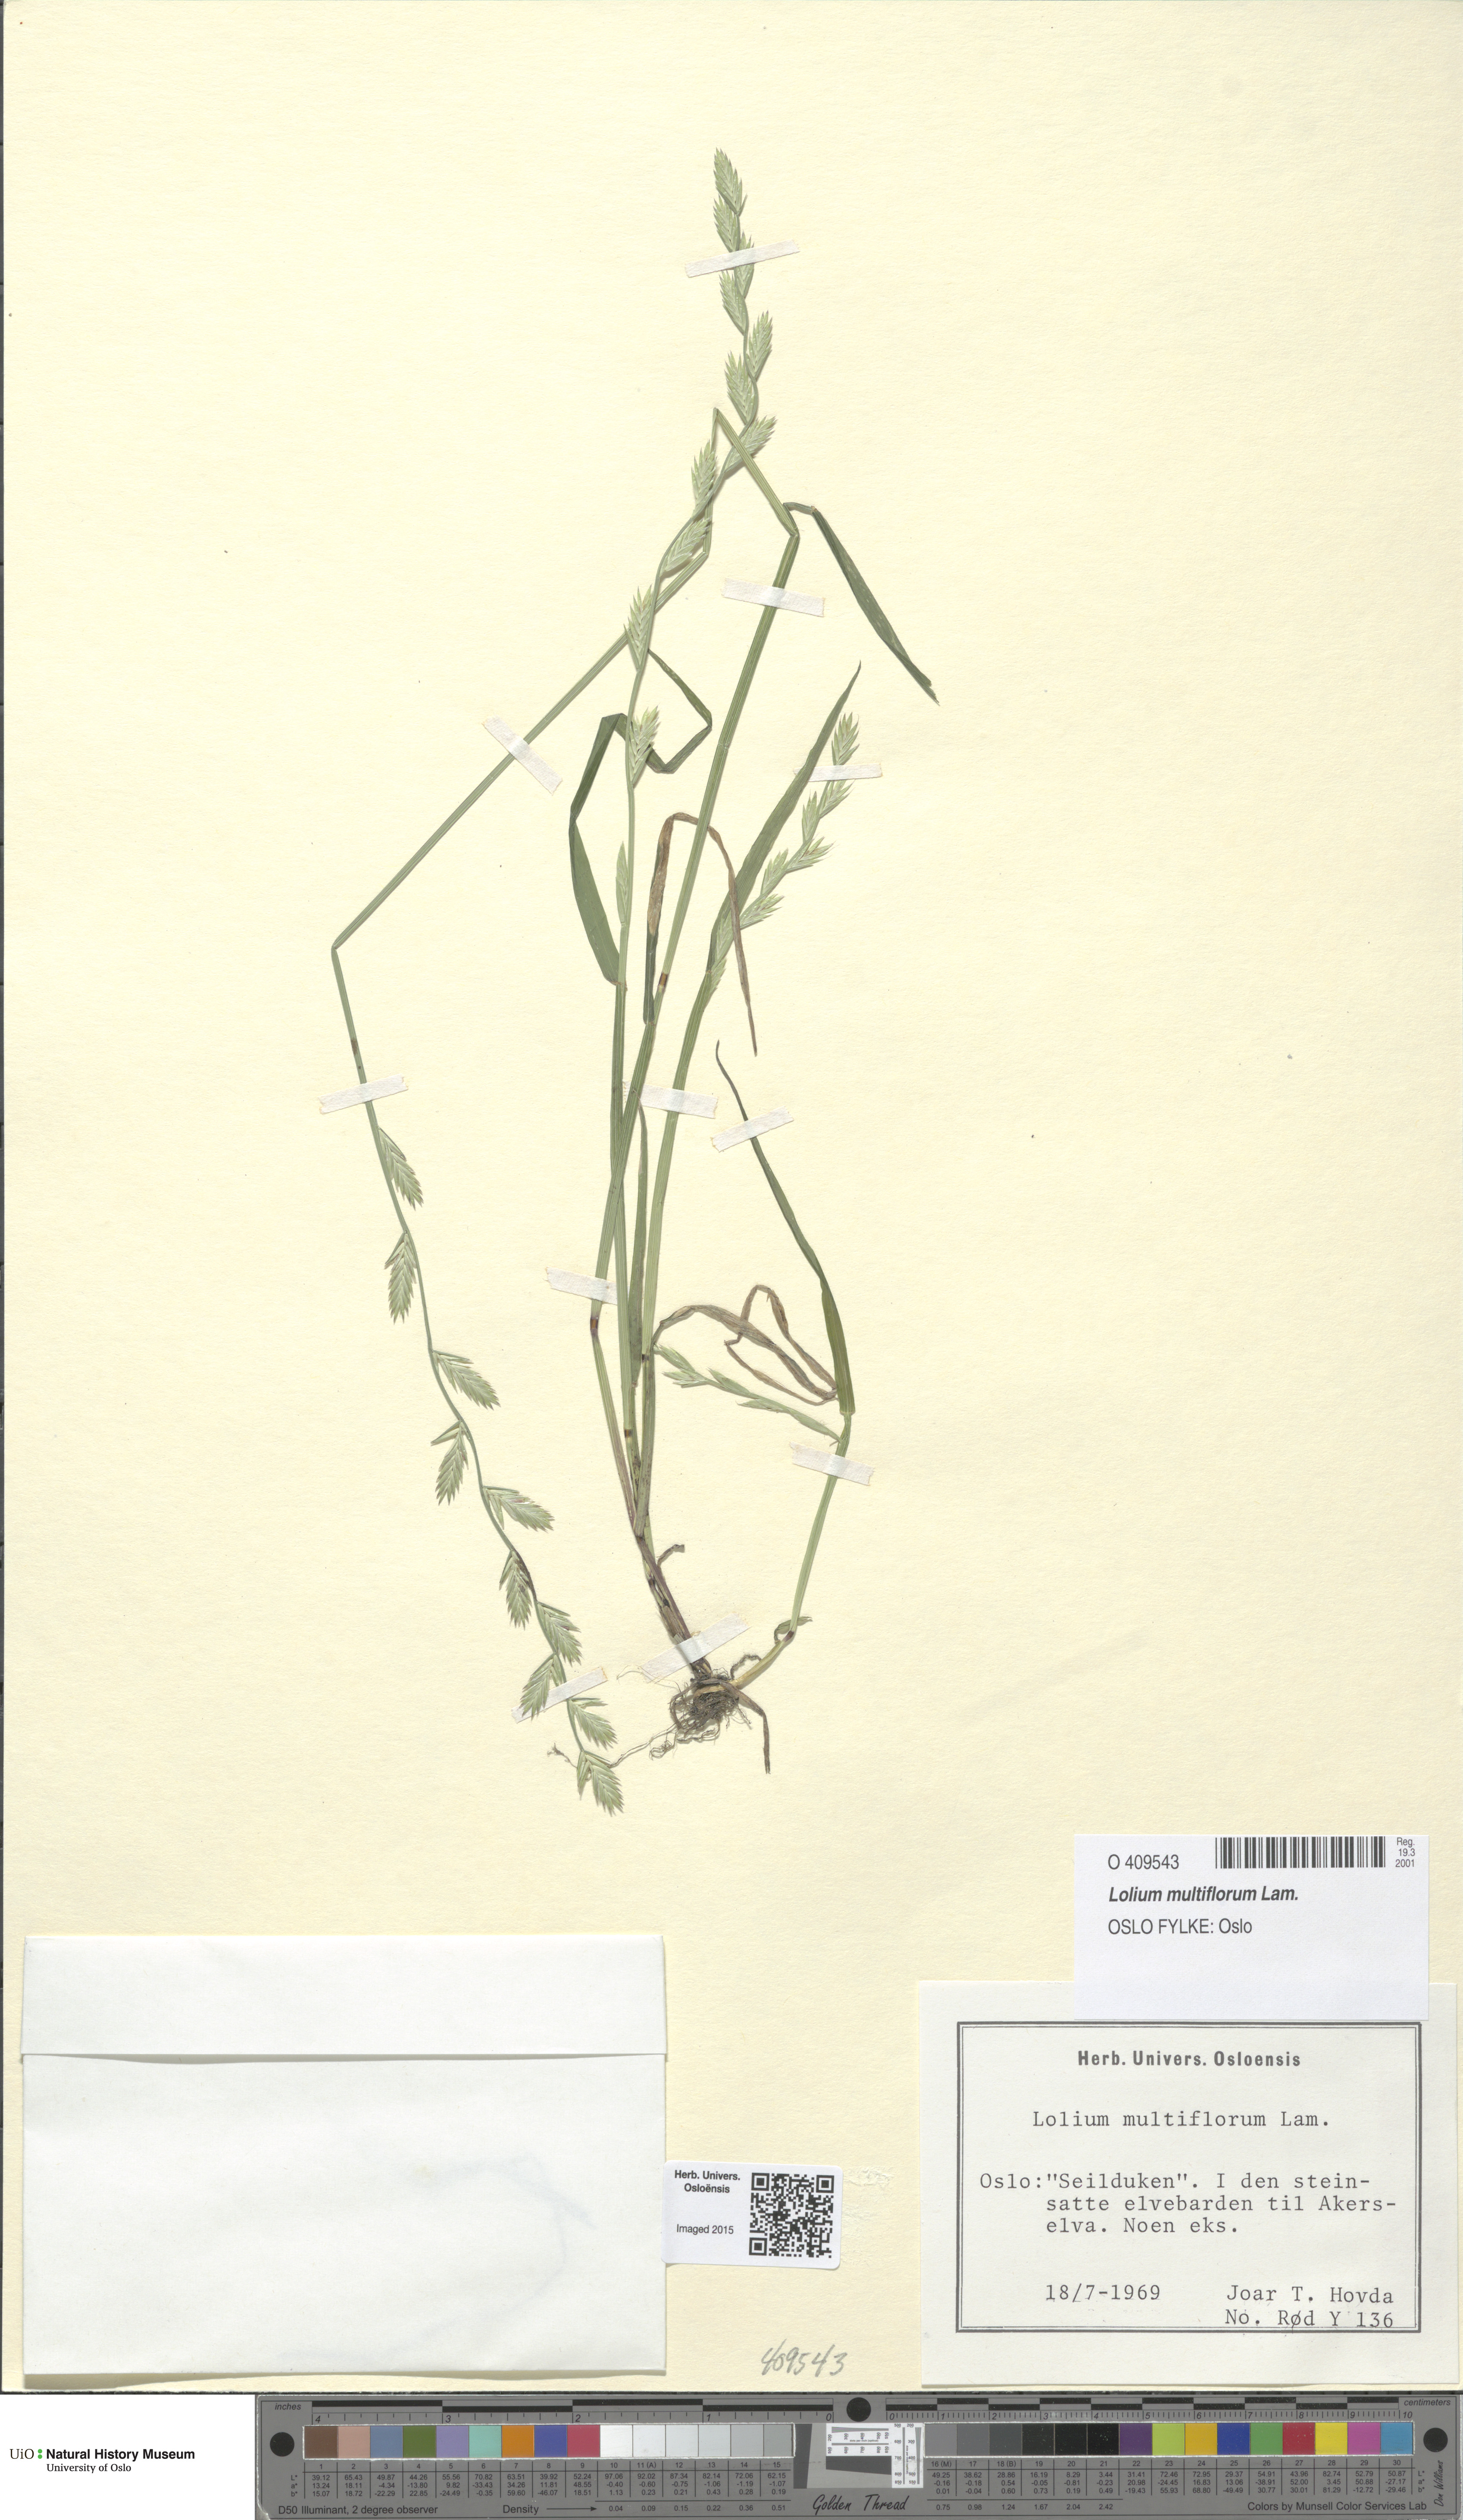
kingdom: Plantae
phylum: Tracheophyta
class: Liliopsida
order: Poales
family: Poaceae
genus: Lolium
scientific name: Lolium multiflorum
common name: Annual ryegrass
